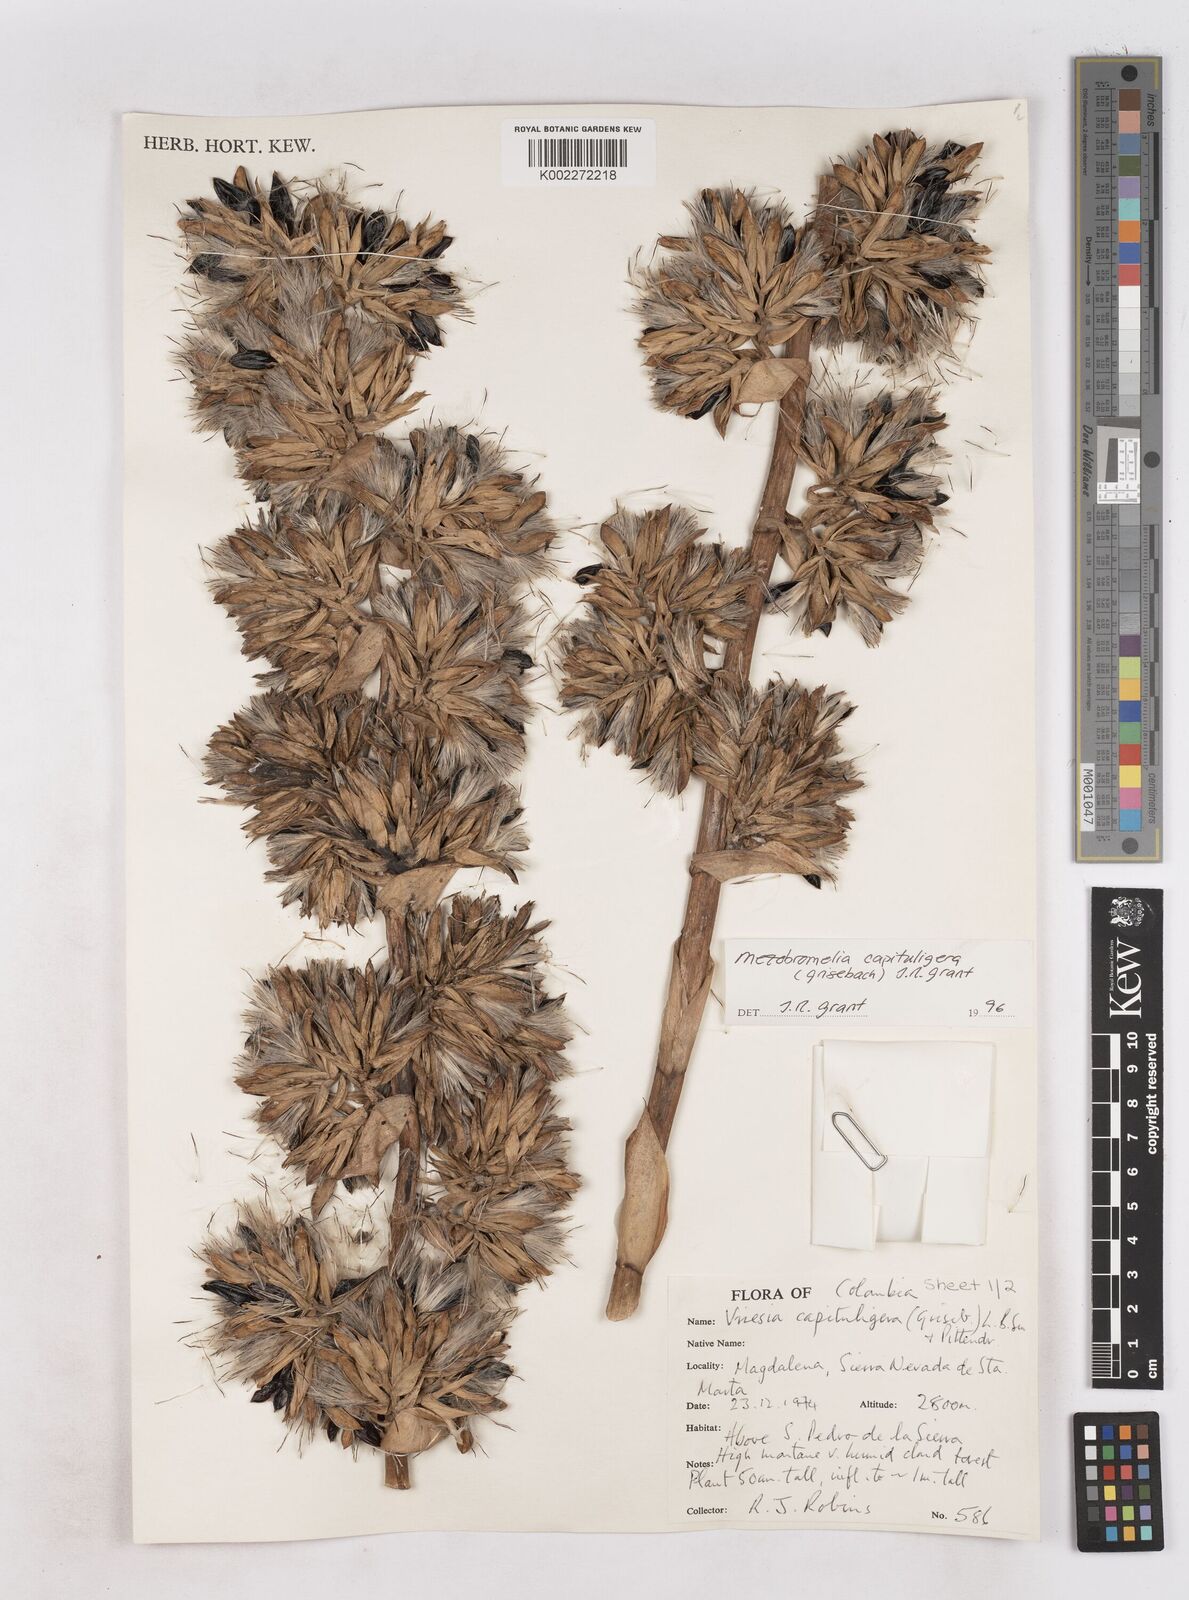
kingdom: Plantae
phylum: Tracheophyta
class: Liliopsida
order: Poales
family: Bromeliaceae
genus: Cipuropsis
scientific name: Cipuropsis capituligera
